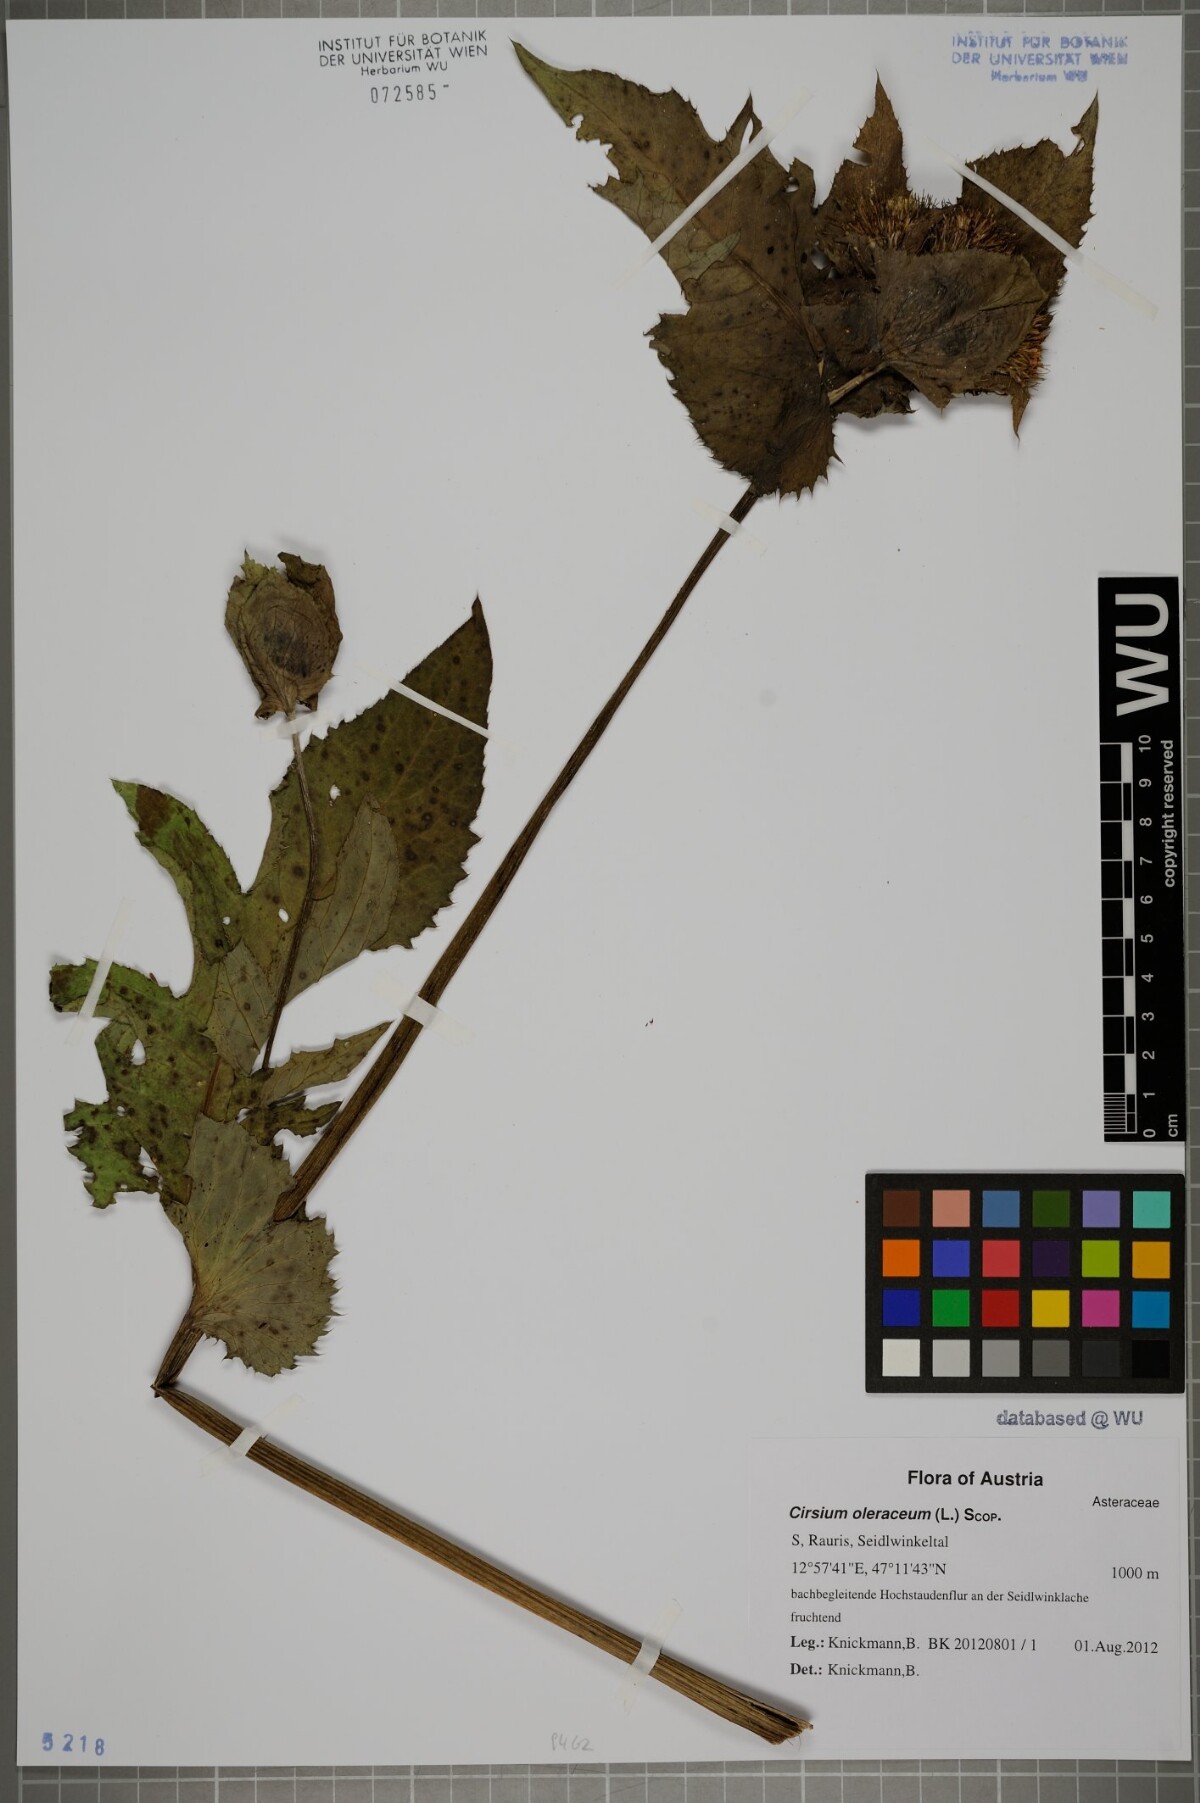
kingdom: Plantae
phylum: Tracheophyta
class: Magnoliopsida
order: Asterales
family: Asteraceae
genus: Cirsium
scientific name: Cirsium oleraceum
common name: Cabbage thistle
